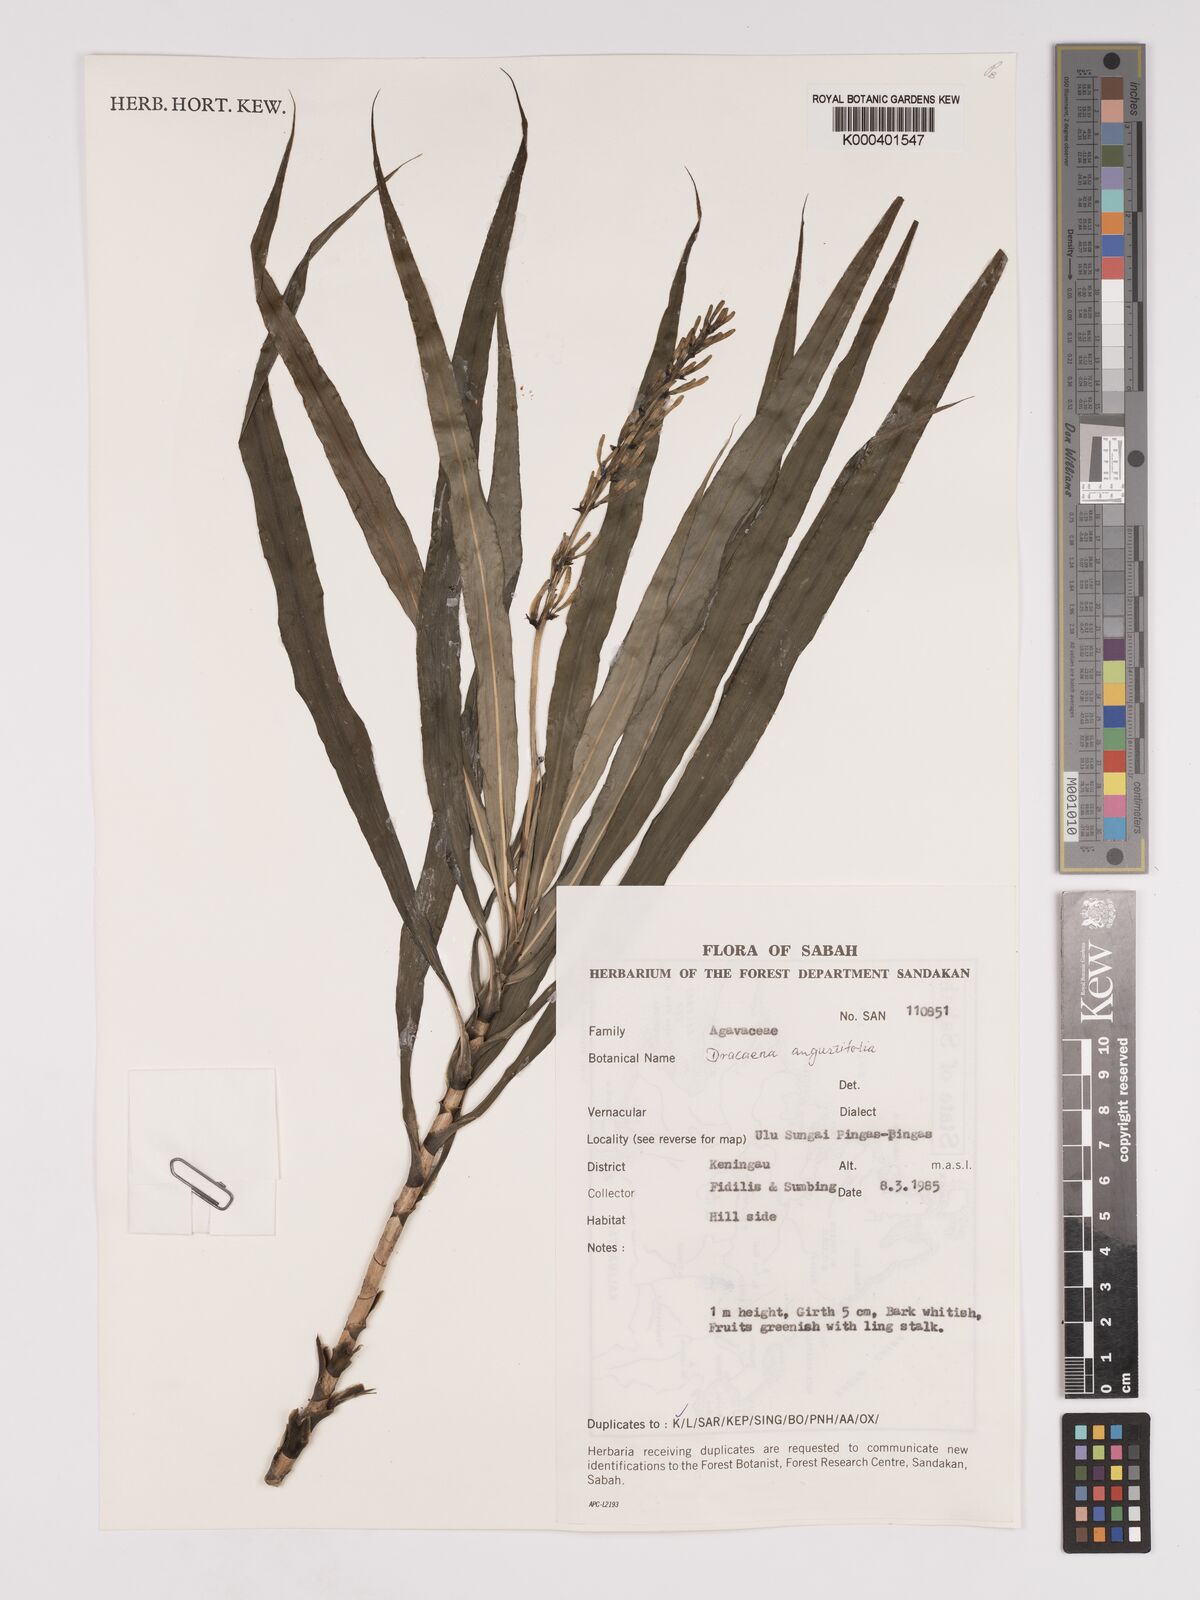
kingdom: Plantae
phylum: Tracheophyta
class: Liliopsida
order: Asparagales
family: Asparagaceae
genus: Dracaena
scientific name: Dracaena angustifolia
